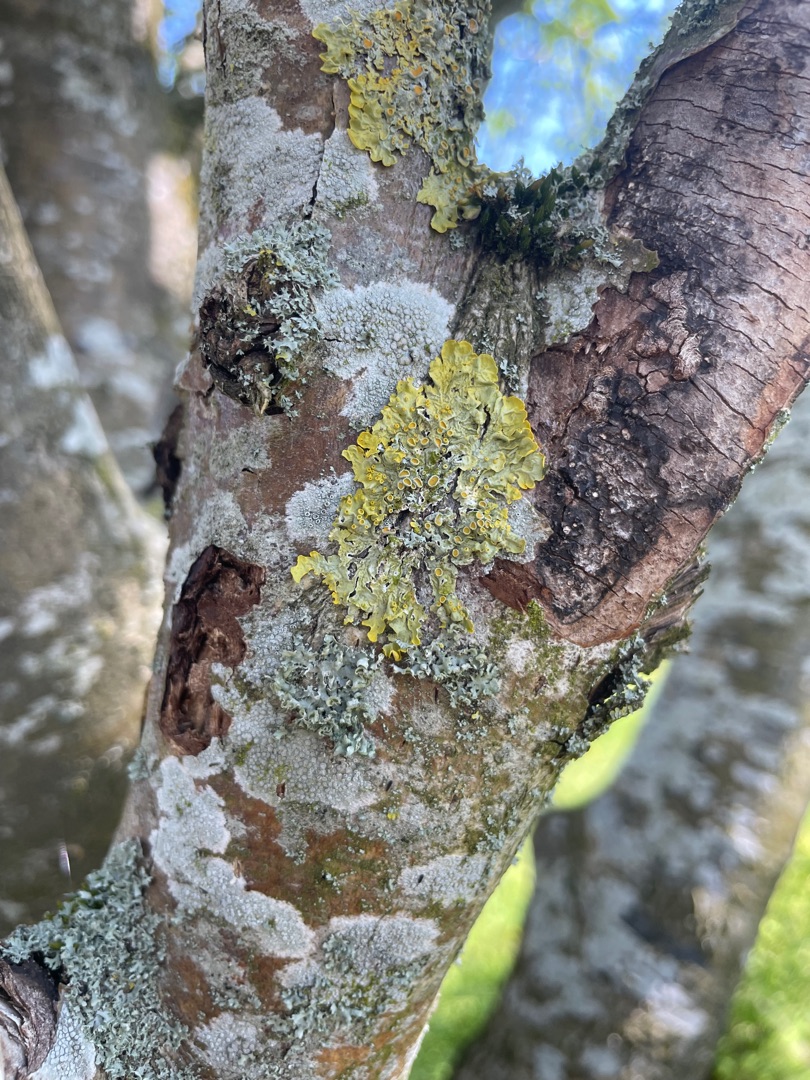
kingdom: Fungi
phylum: Ascomycota
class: Lecanoromycetes
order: Teloschistales
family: Teloschistaceae
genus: Xanthoria
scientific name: Xanthoria parietina
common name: Almindelig væggelav
